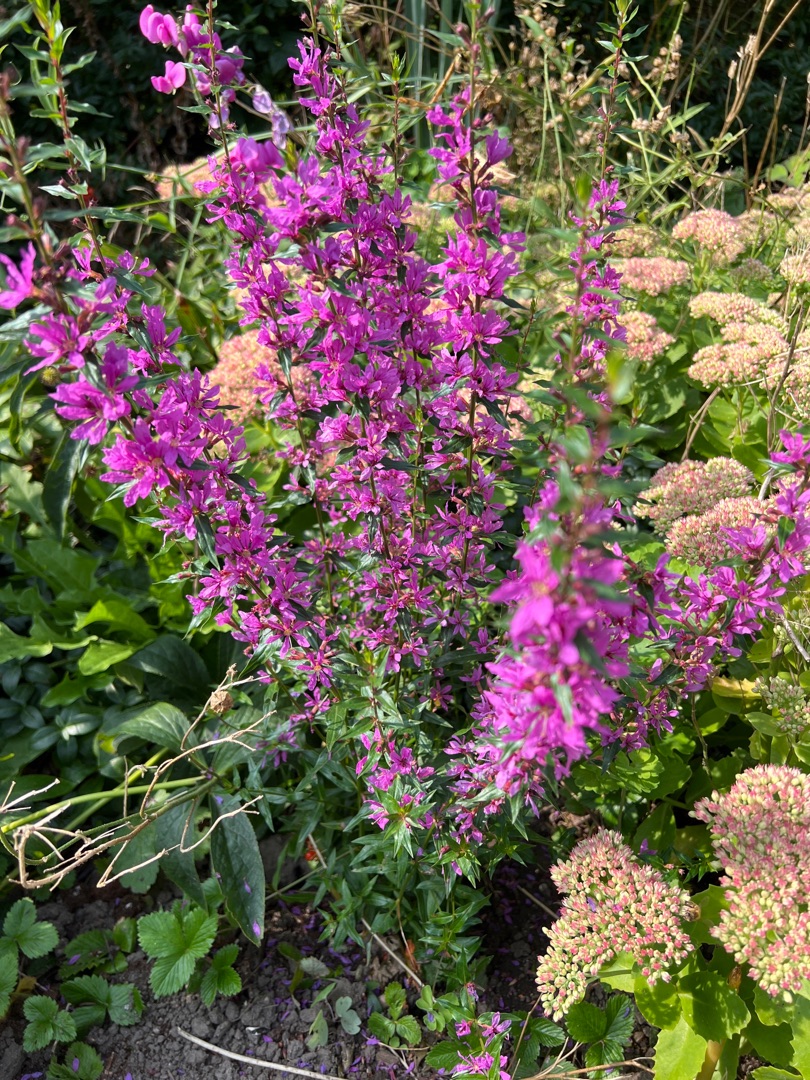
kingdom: Plantae
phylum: Tracheophyta
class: Magnoliopsida
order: Myrtales
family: Lythraceae
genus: Lythrum
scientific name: Lythrum salicaria
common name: Kattehale
